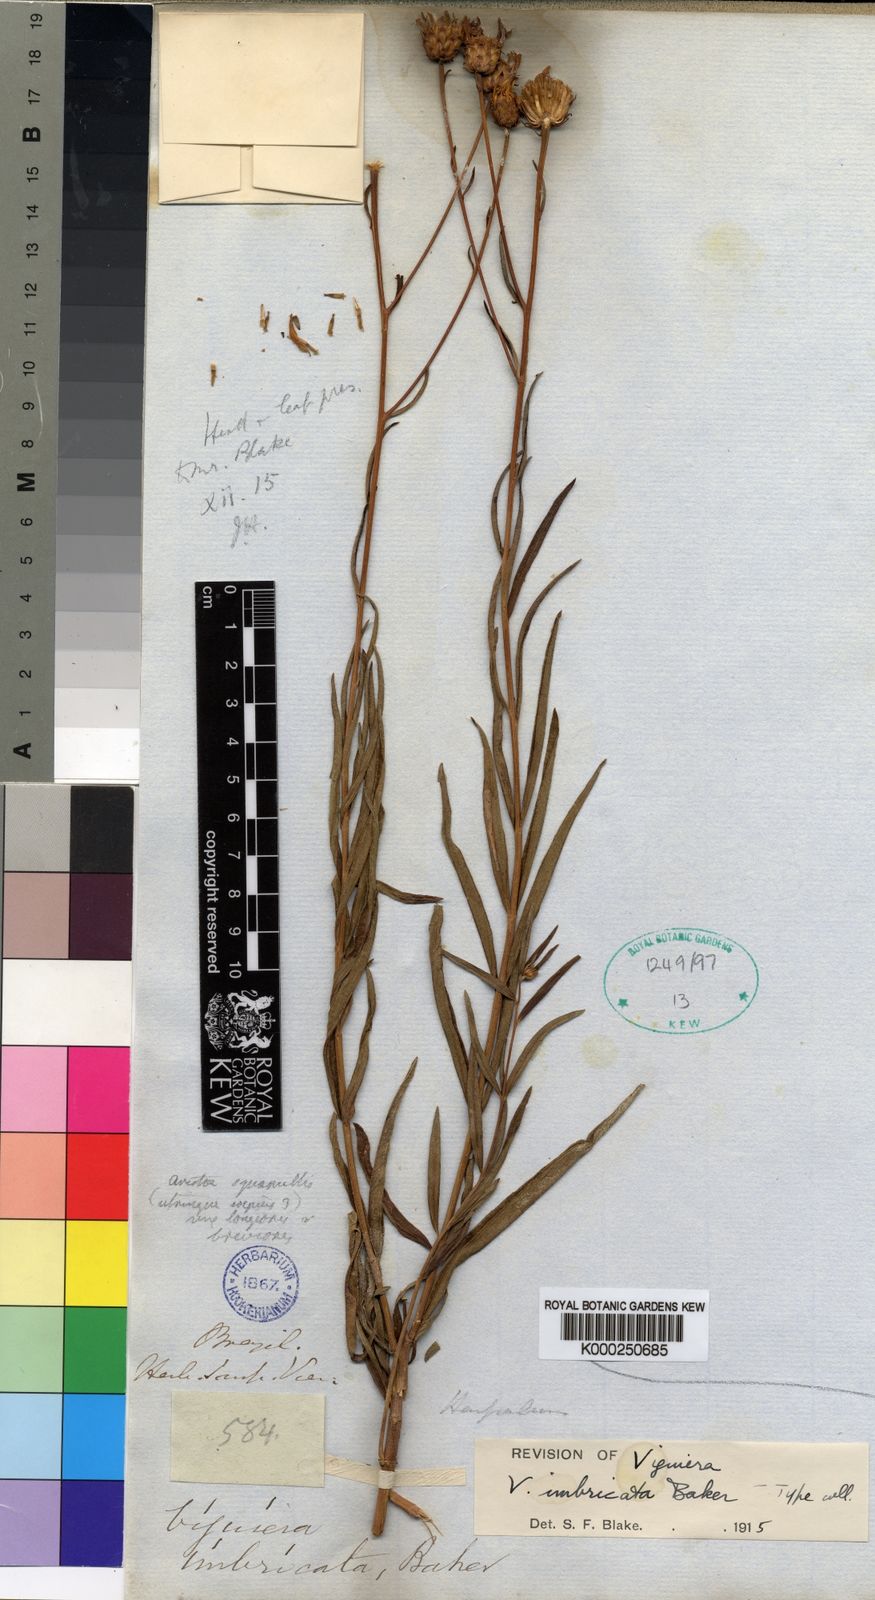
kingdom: Plantae
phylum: Tracheophyta
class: Magnoliopsida
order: Asterales
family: Asteraceae
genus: Aldama
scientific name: Aldama bracteata
